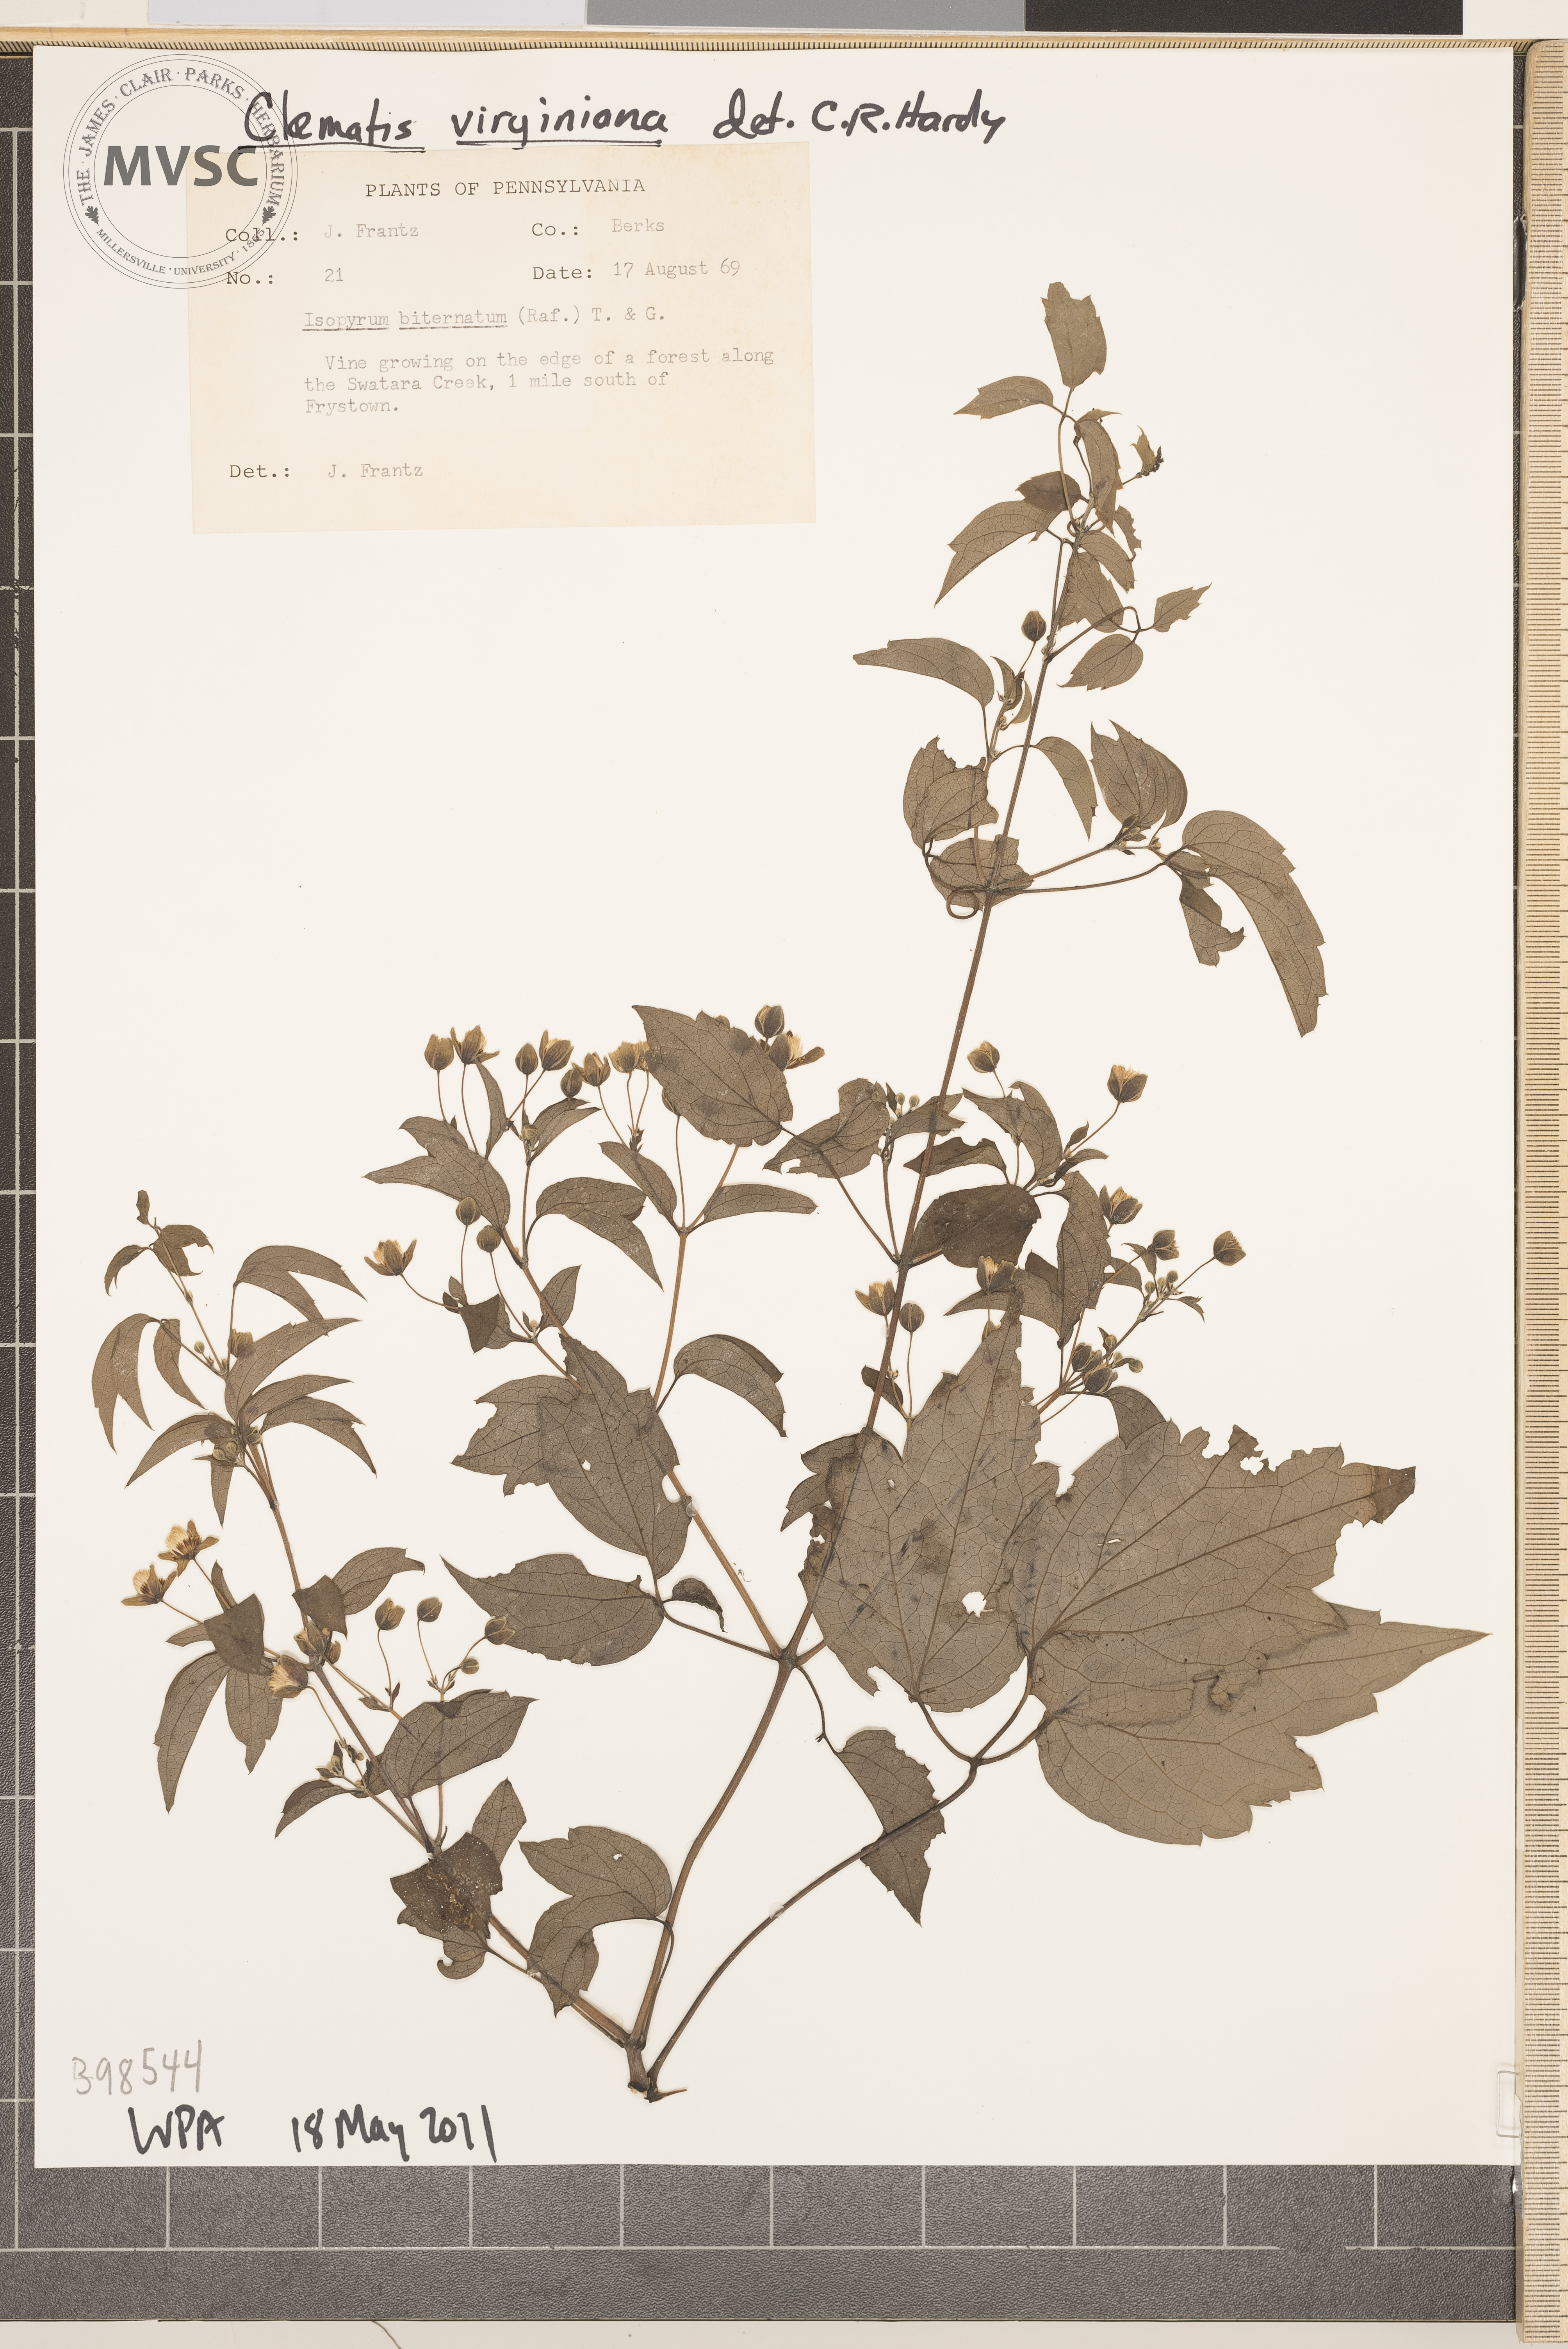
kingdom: Plantae
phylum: Tracheophyta
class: Magnoliopsida
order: Ranunculales
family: Ranunculaceae
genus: Clematis
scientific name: Clematis virginiana
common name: Virgin's-bower
